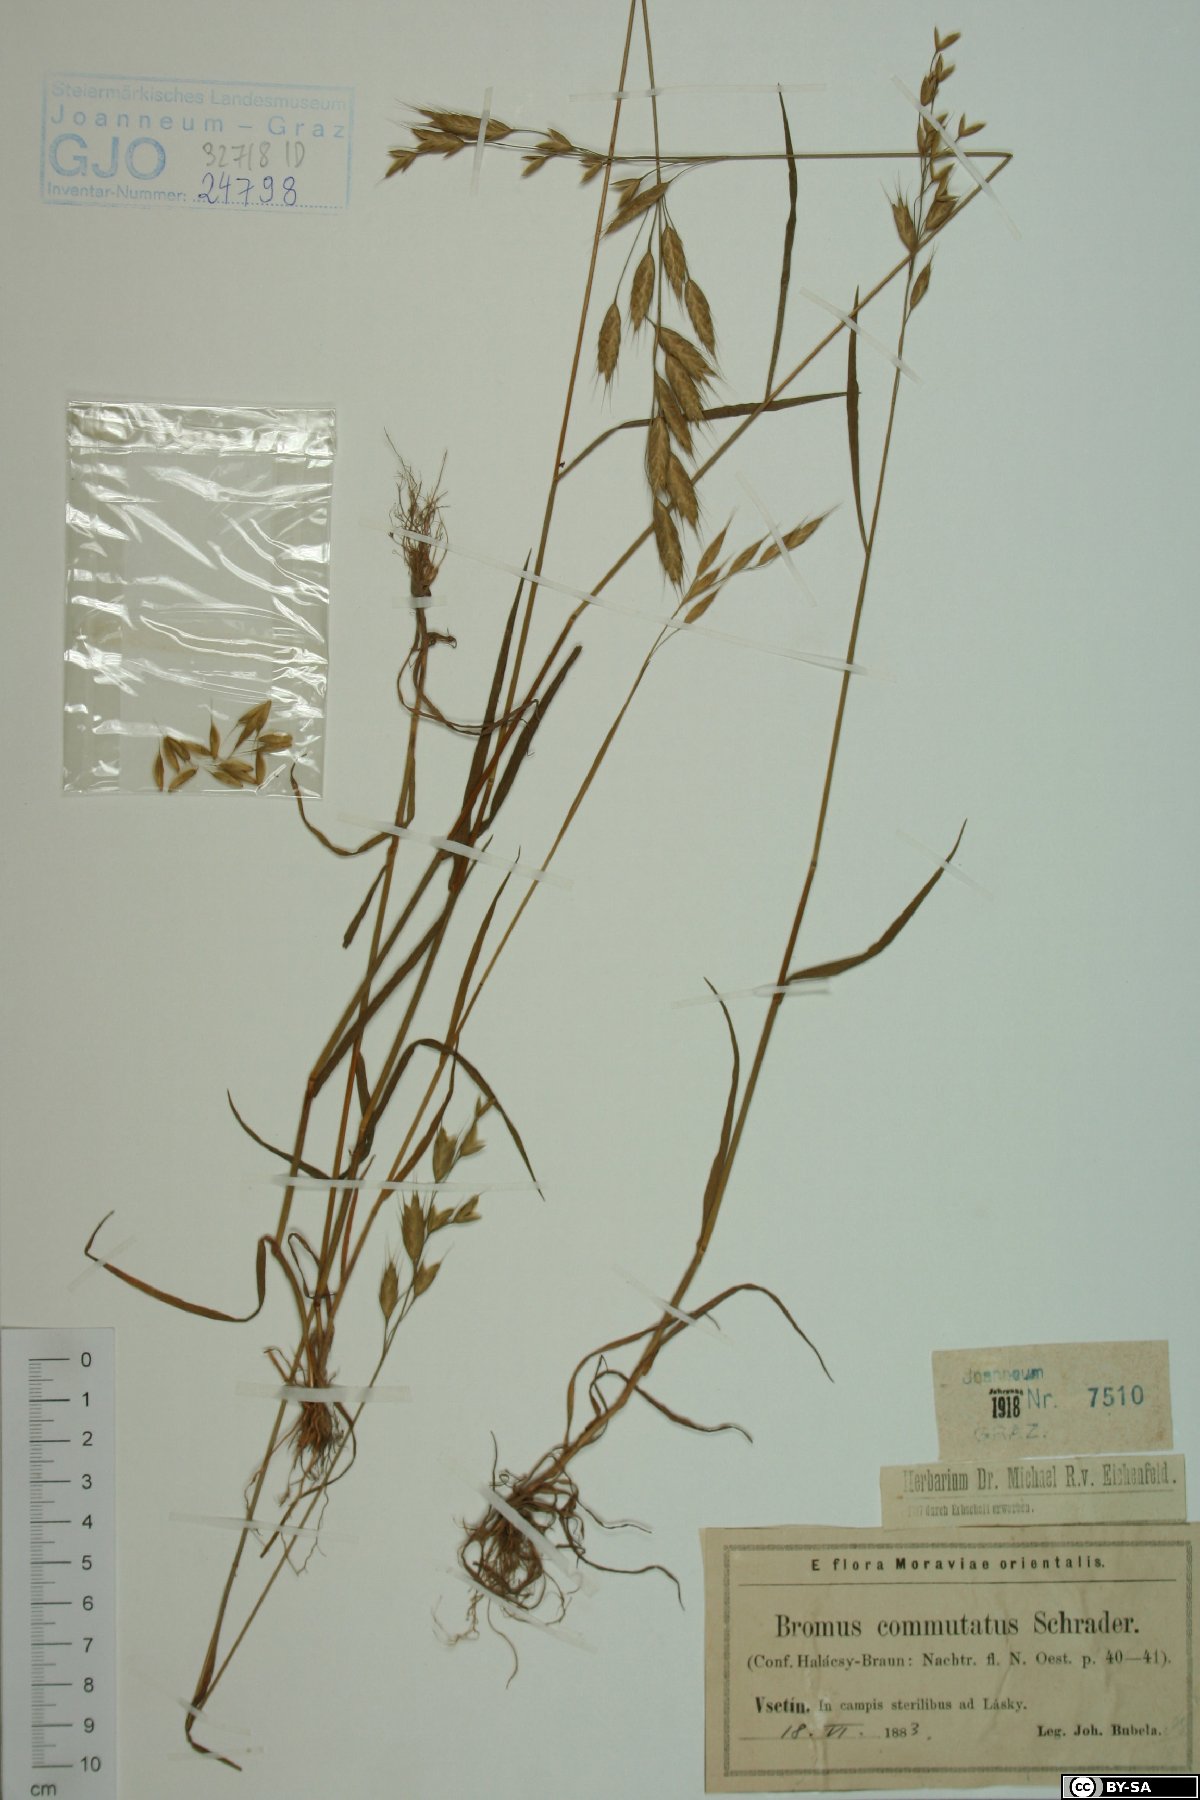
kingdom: Plantae
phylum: Tracheophyta
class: Liliopsida
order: Poales
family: Poaceae
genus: Bromus
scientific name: Bromus commutatus
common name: Meadow brome
